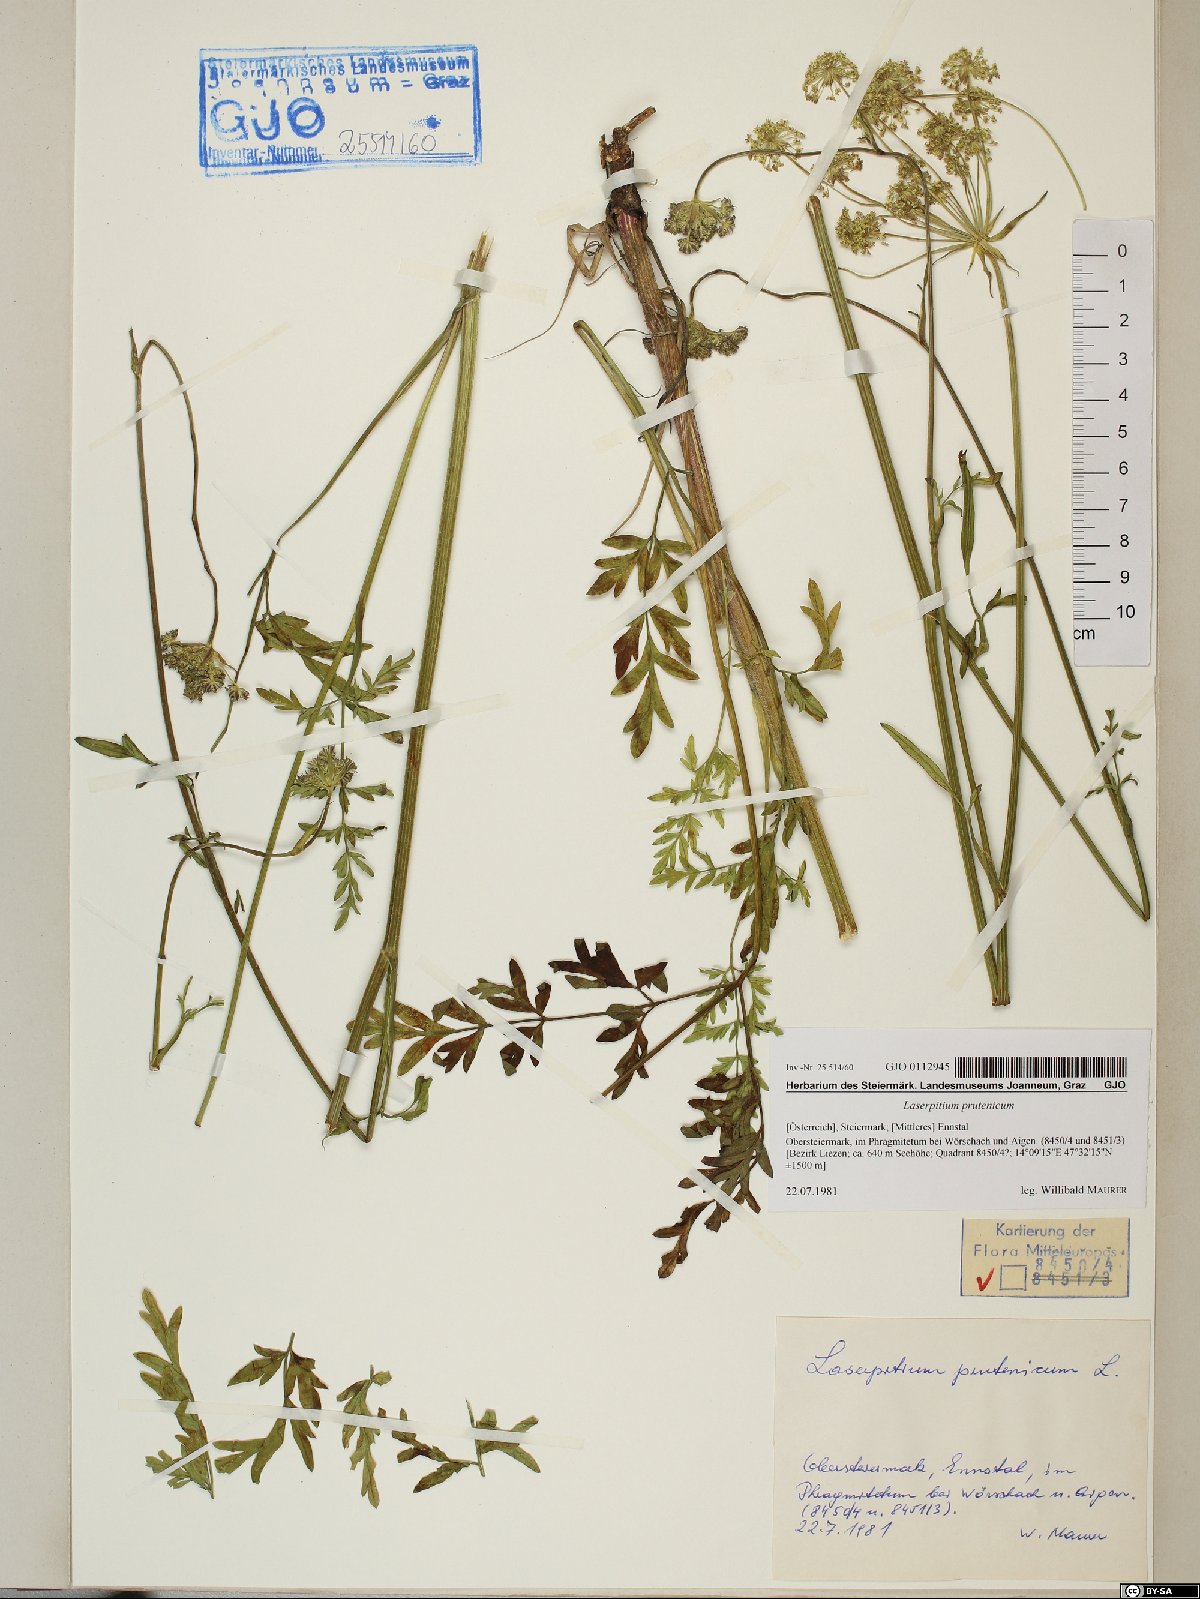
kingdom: Plantae
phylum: Tracheophyta
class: Magnoliopsida
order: Apiales
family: Apiaceae
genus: Silphiodaucus
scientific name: Silphiodaucus prutenicus
